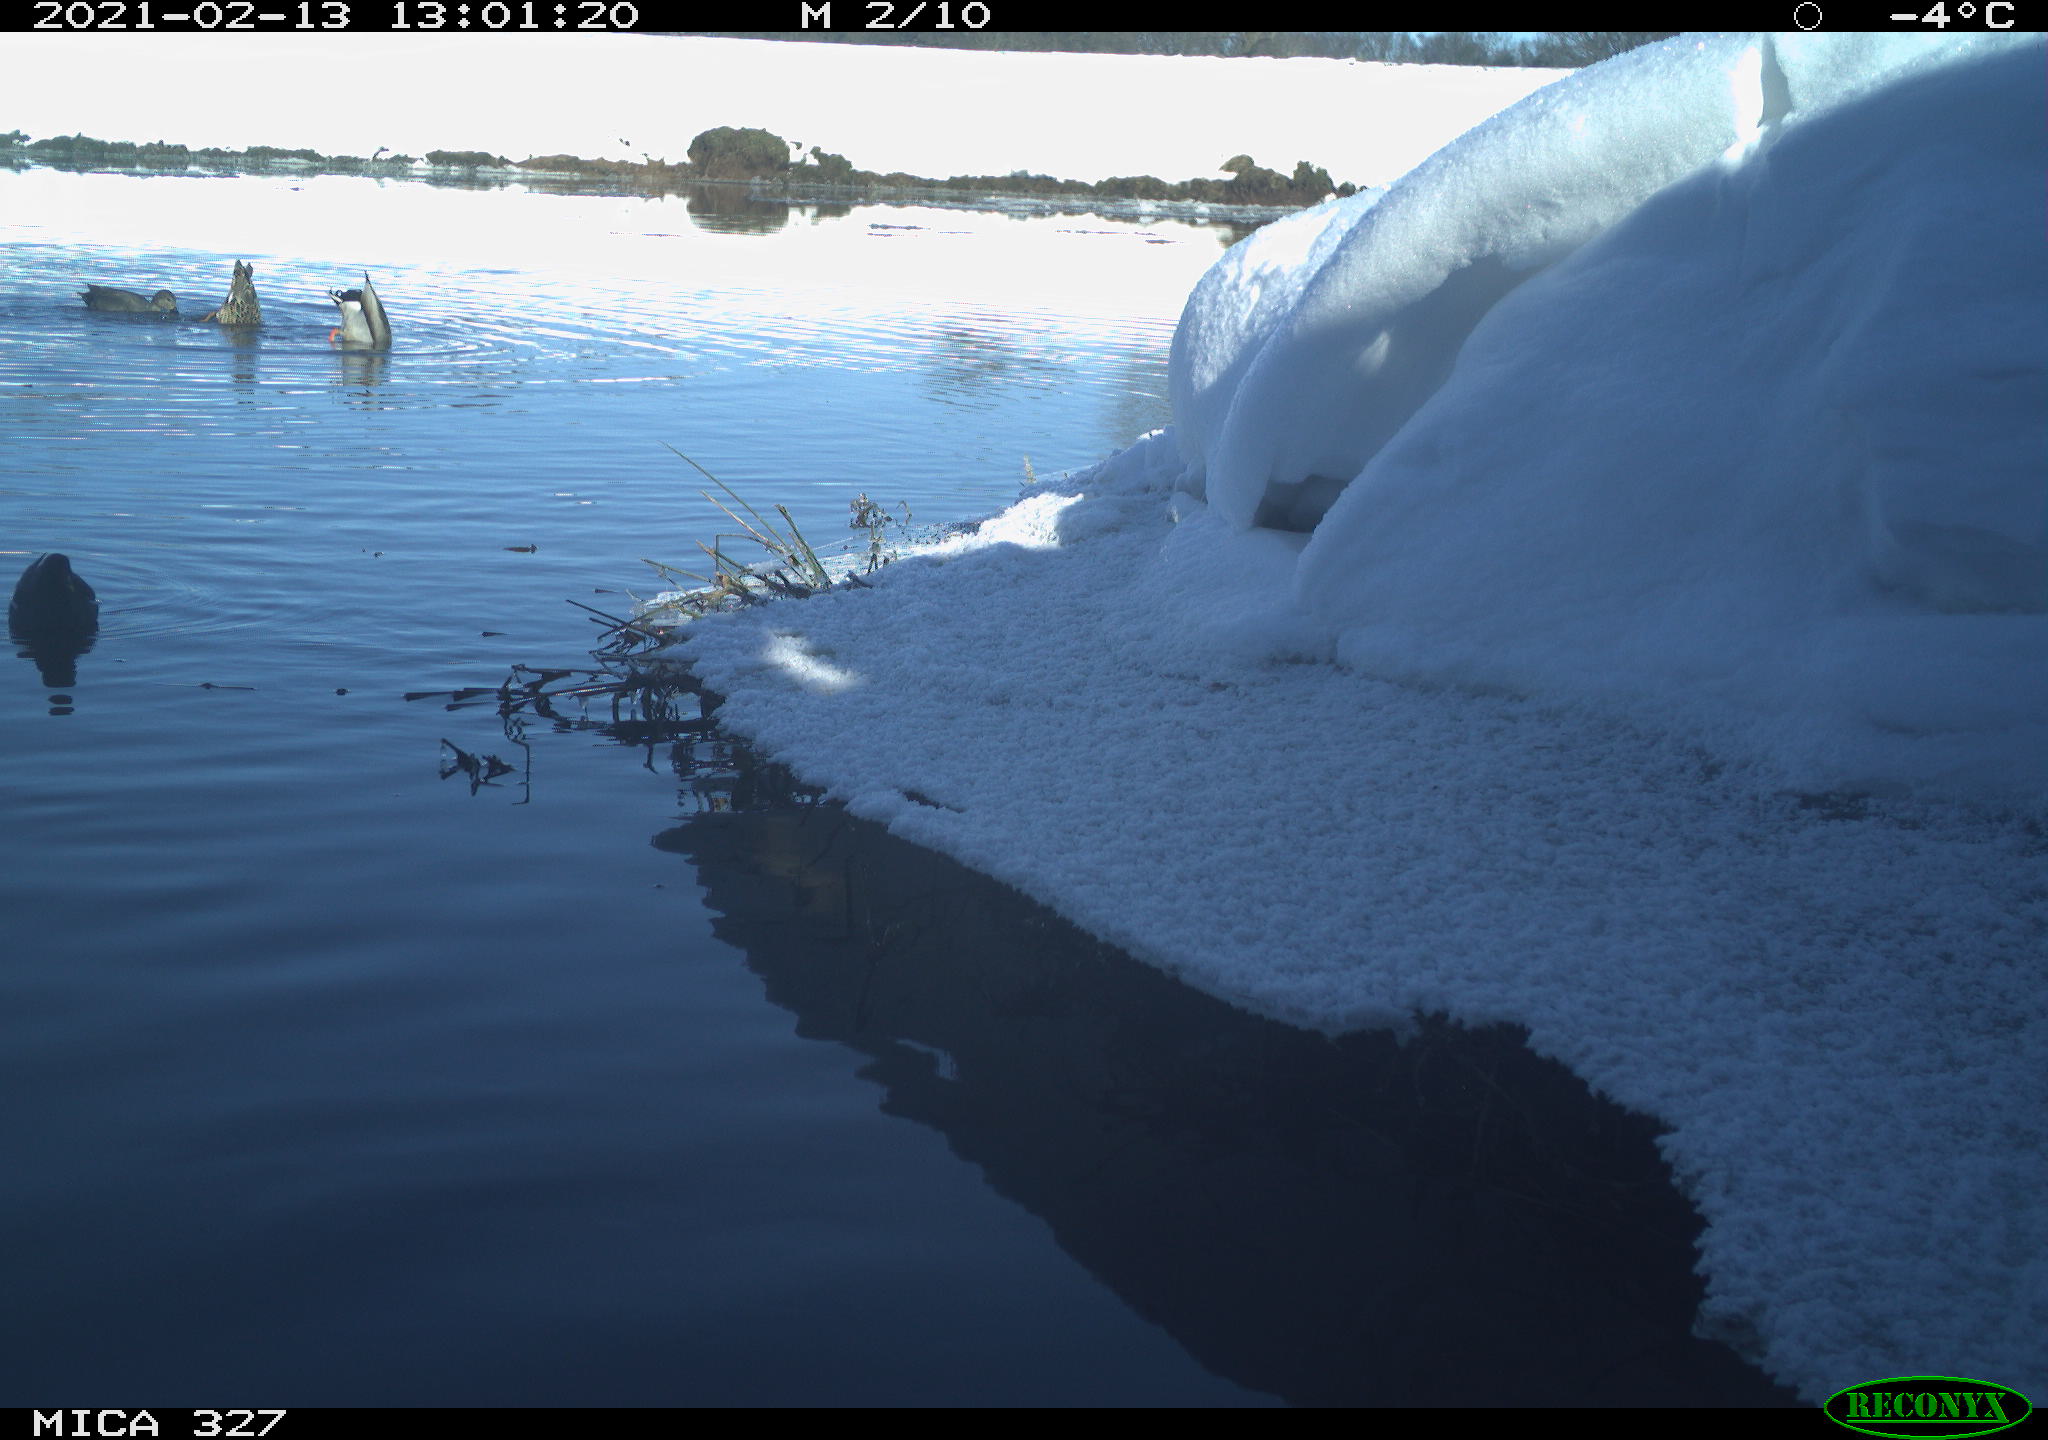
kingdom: Animalia
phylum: Chordata
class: Aves
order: Gruiformes
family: Rallidae
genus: Gallinula
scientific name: Gallinula chloropus
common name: Common moorhen
